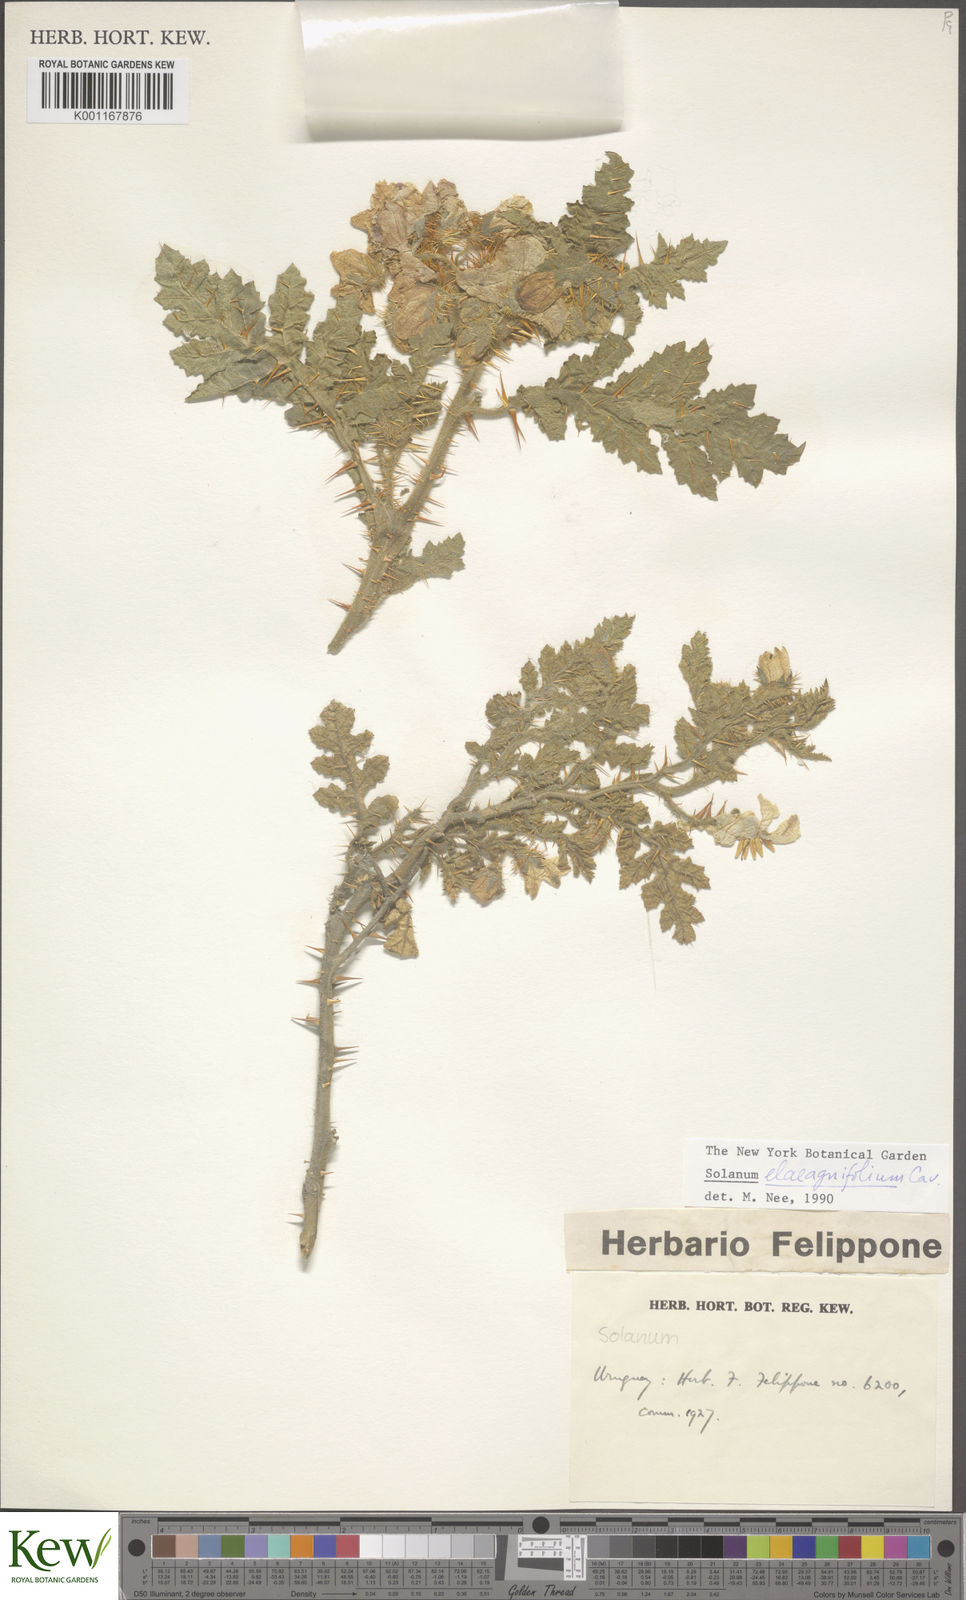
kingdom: Plantae
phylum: Tracheophyta
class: Magnoliopsida
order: Solanales
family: Solanaceae
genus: Solanum
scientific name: Solanum elaeagnifolium
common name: Silverleaf nightshade
